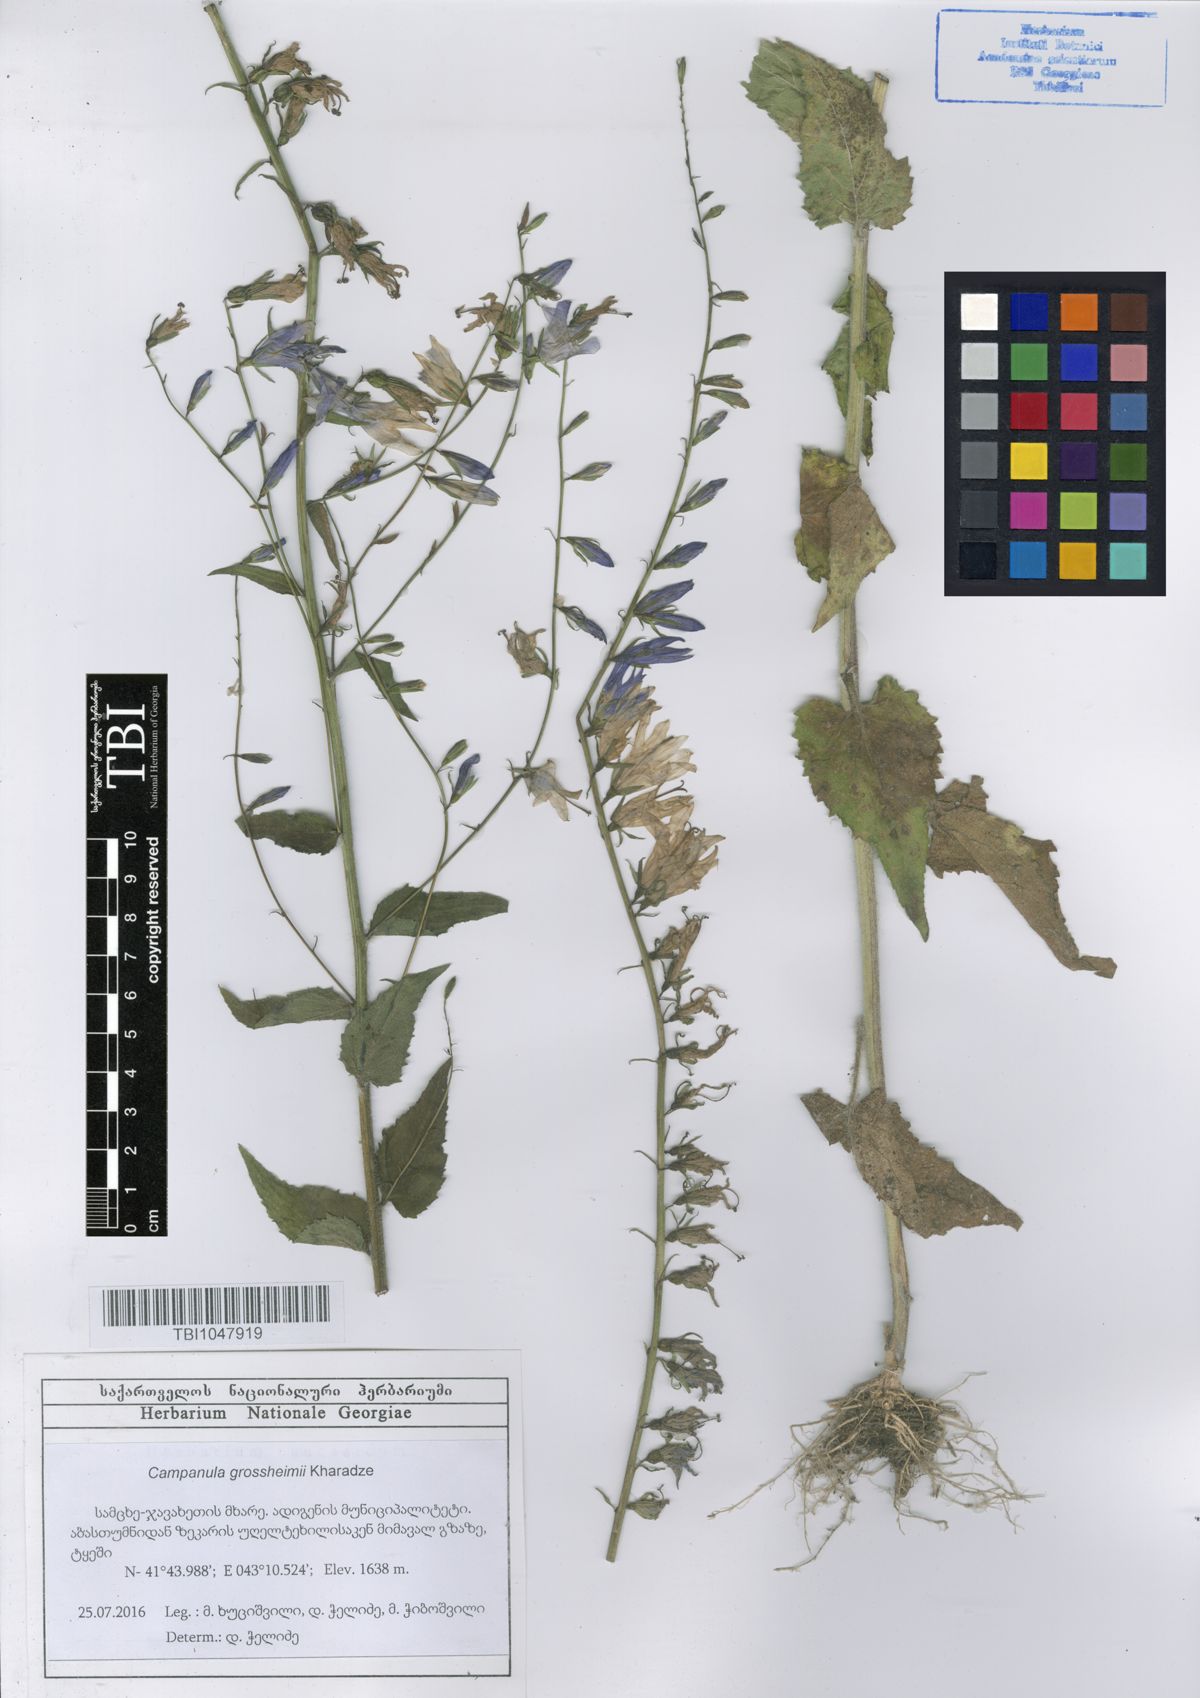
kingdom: Plantae
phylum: Tracheophyta
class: Magnoliopsida
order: Asterales
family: Campanulaceae
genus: Campanula
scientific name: Campanula rapunculoides
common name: Creeping bellflower
